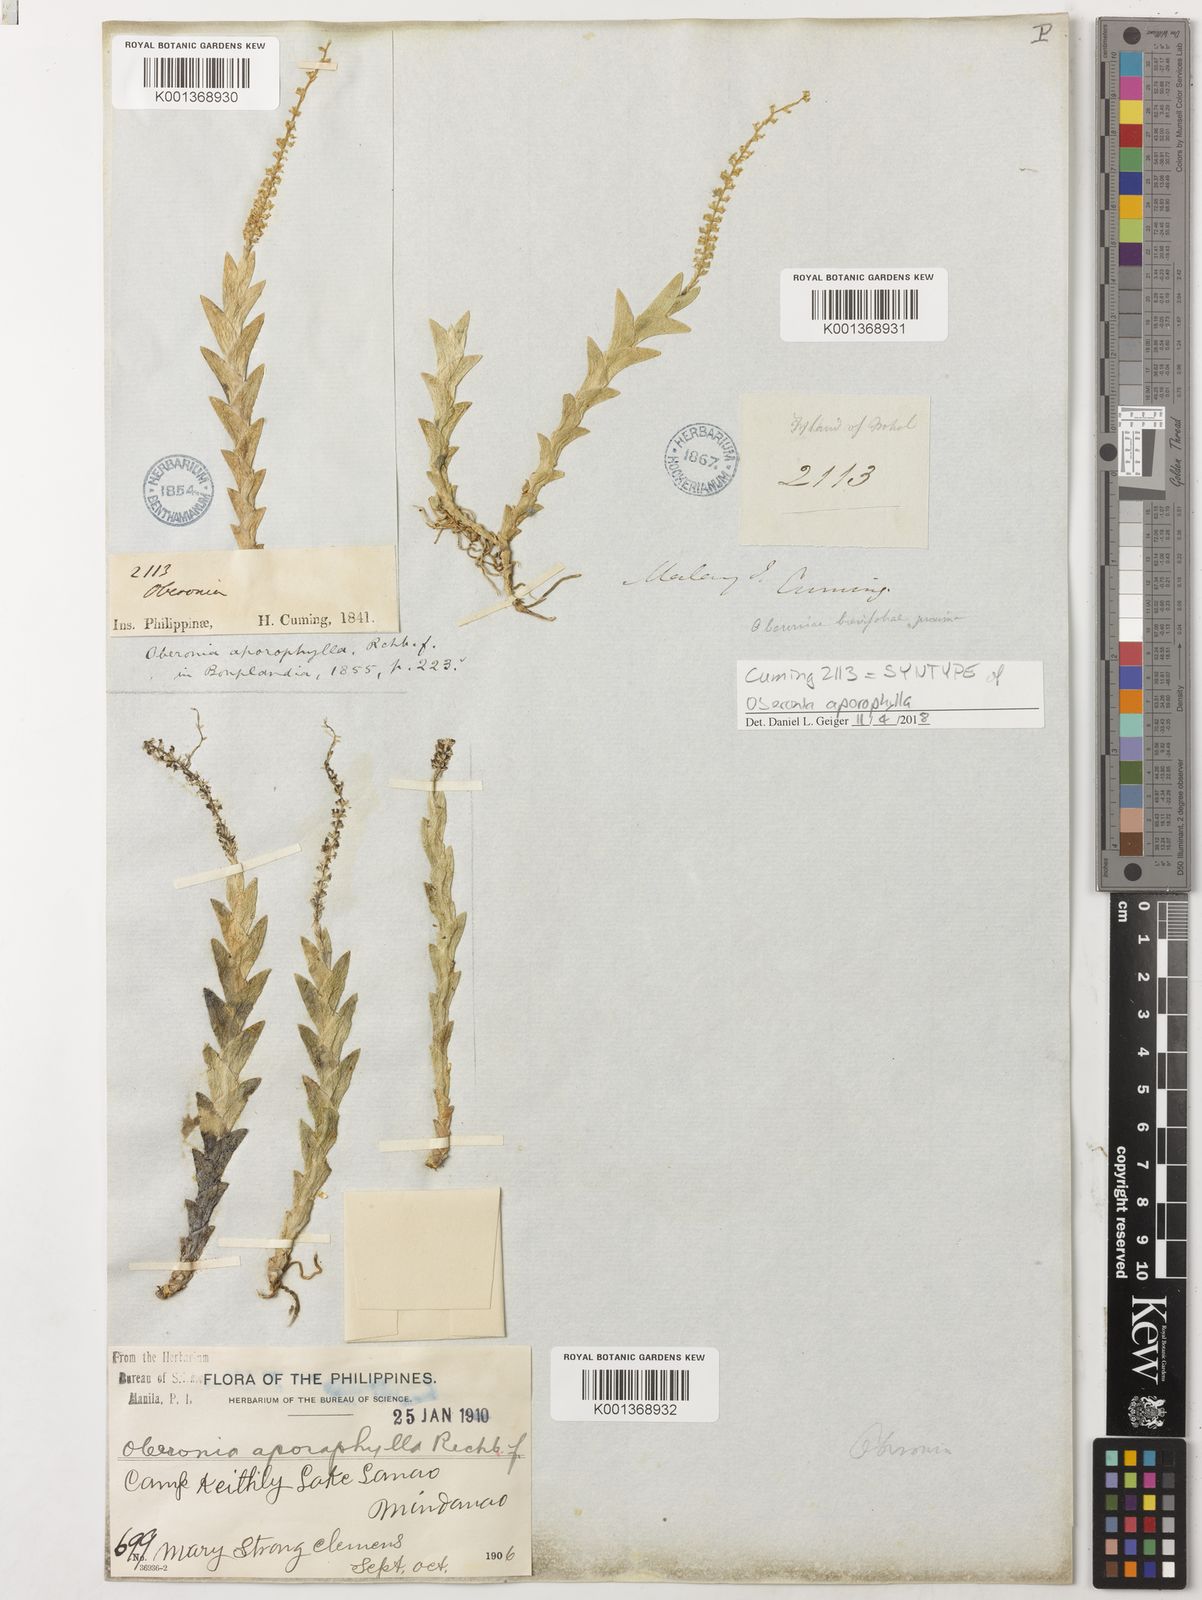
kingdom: Plantae
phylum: Tracheophyta
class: Liliopsida
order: Asparagales
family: Orchidaceae
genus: Oberonia
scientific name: Oberonia aporophylla
